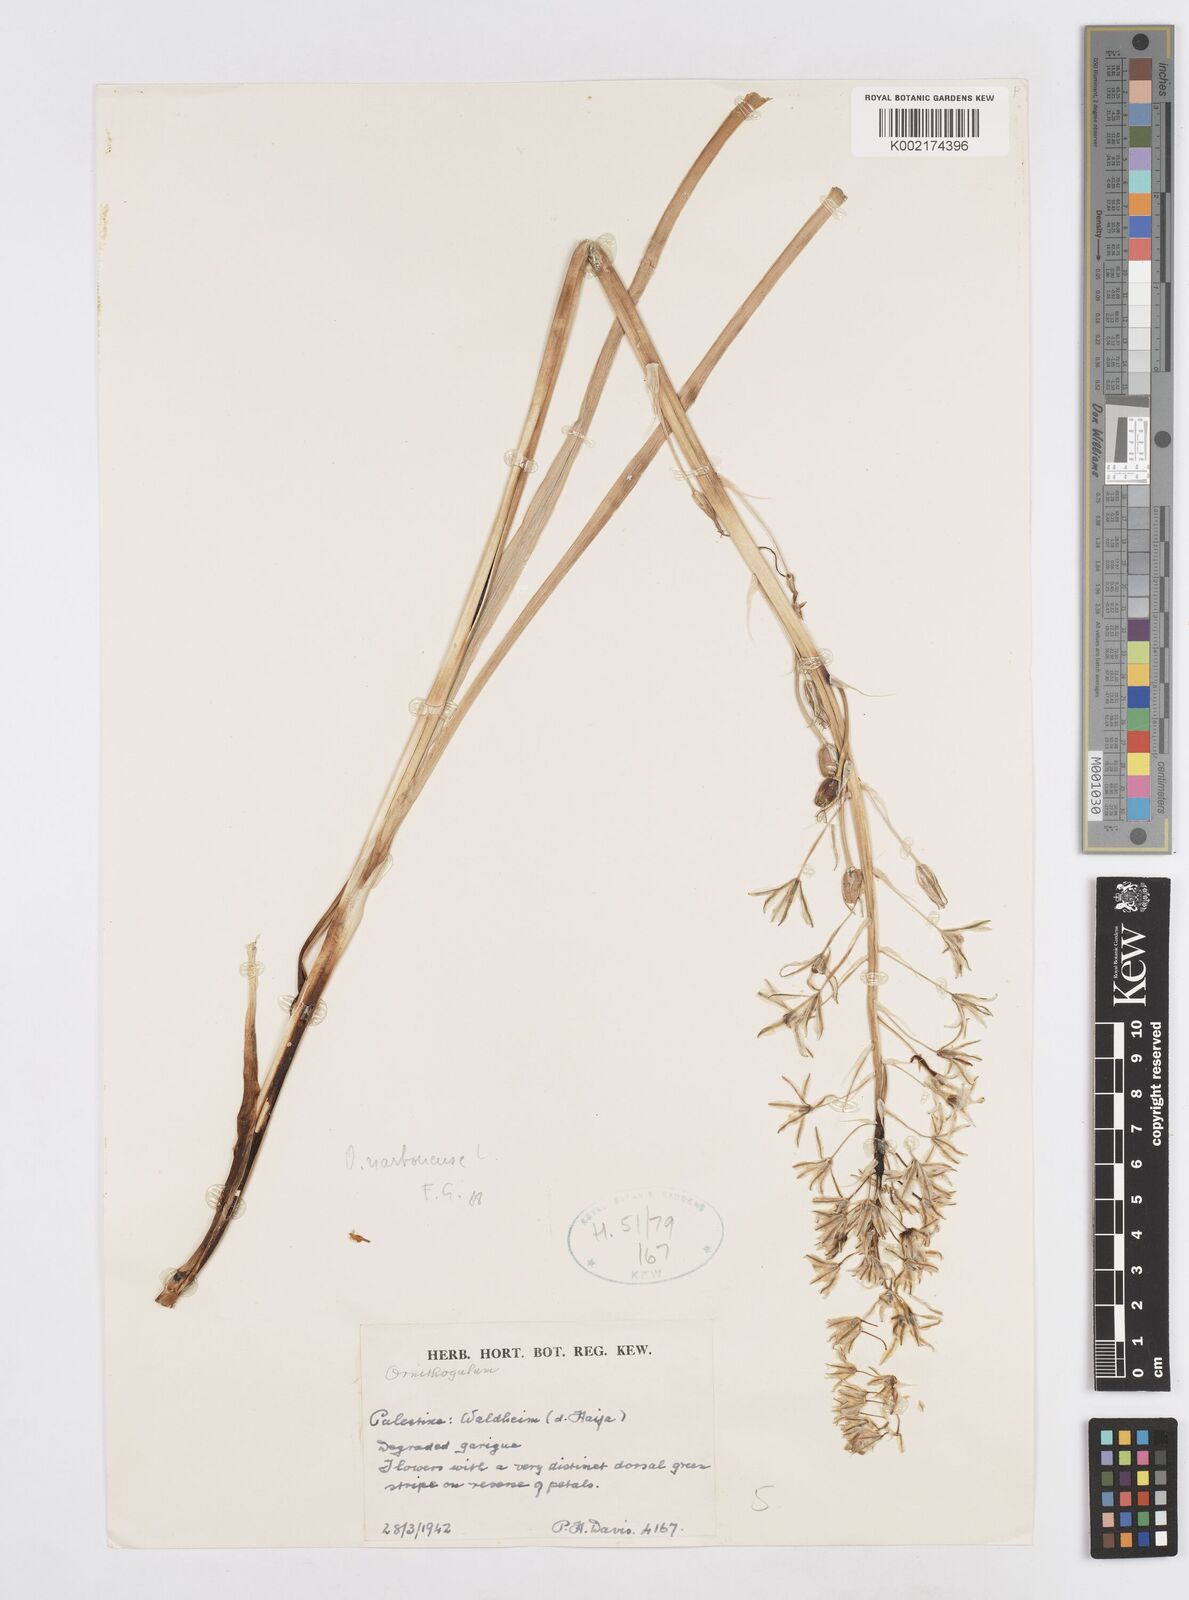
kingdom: Plantae
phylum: Tracheophyta
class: Liliopsida
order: Asparagales
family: Asparagaceae
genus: Ornithogalum
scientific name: Ornithogalum narbonense
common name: Bath-asparagus
